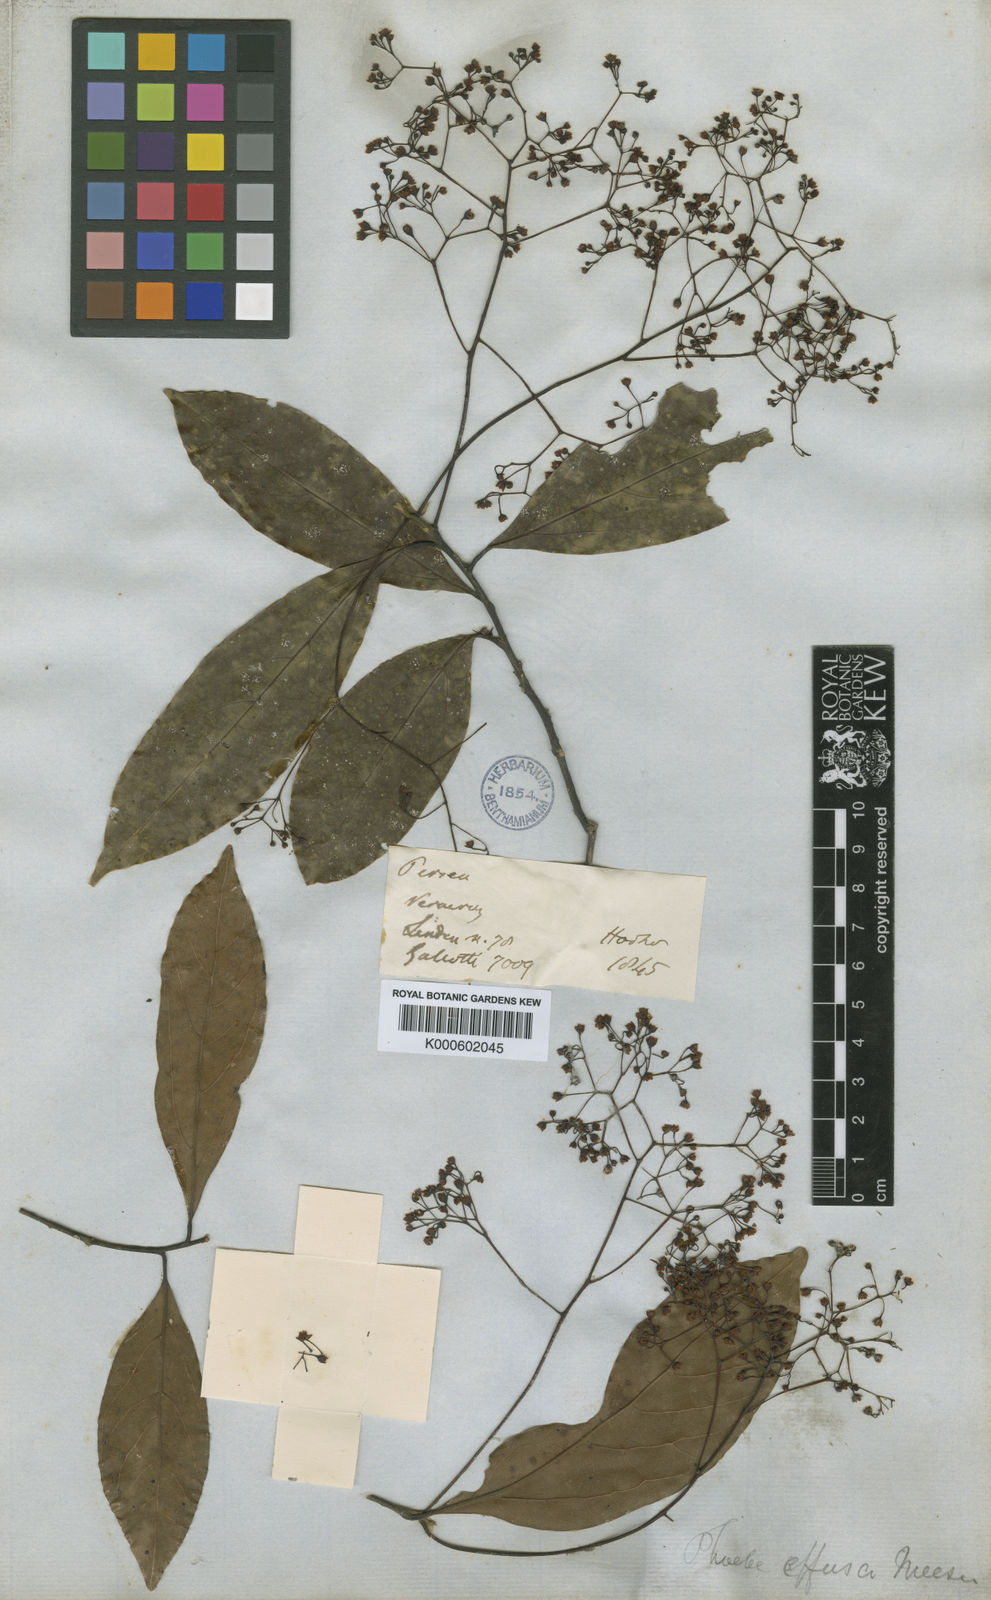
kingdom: Plantae
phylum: Tracheophyta
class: Magnoliopsida
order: Laurales
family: Lauraceae
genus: Ocotea
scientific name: Ocotea effusa
